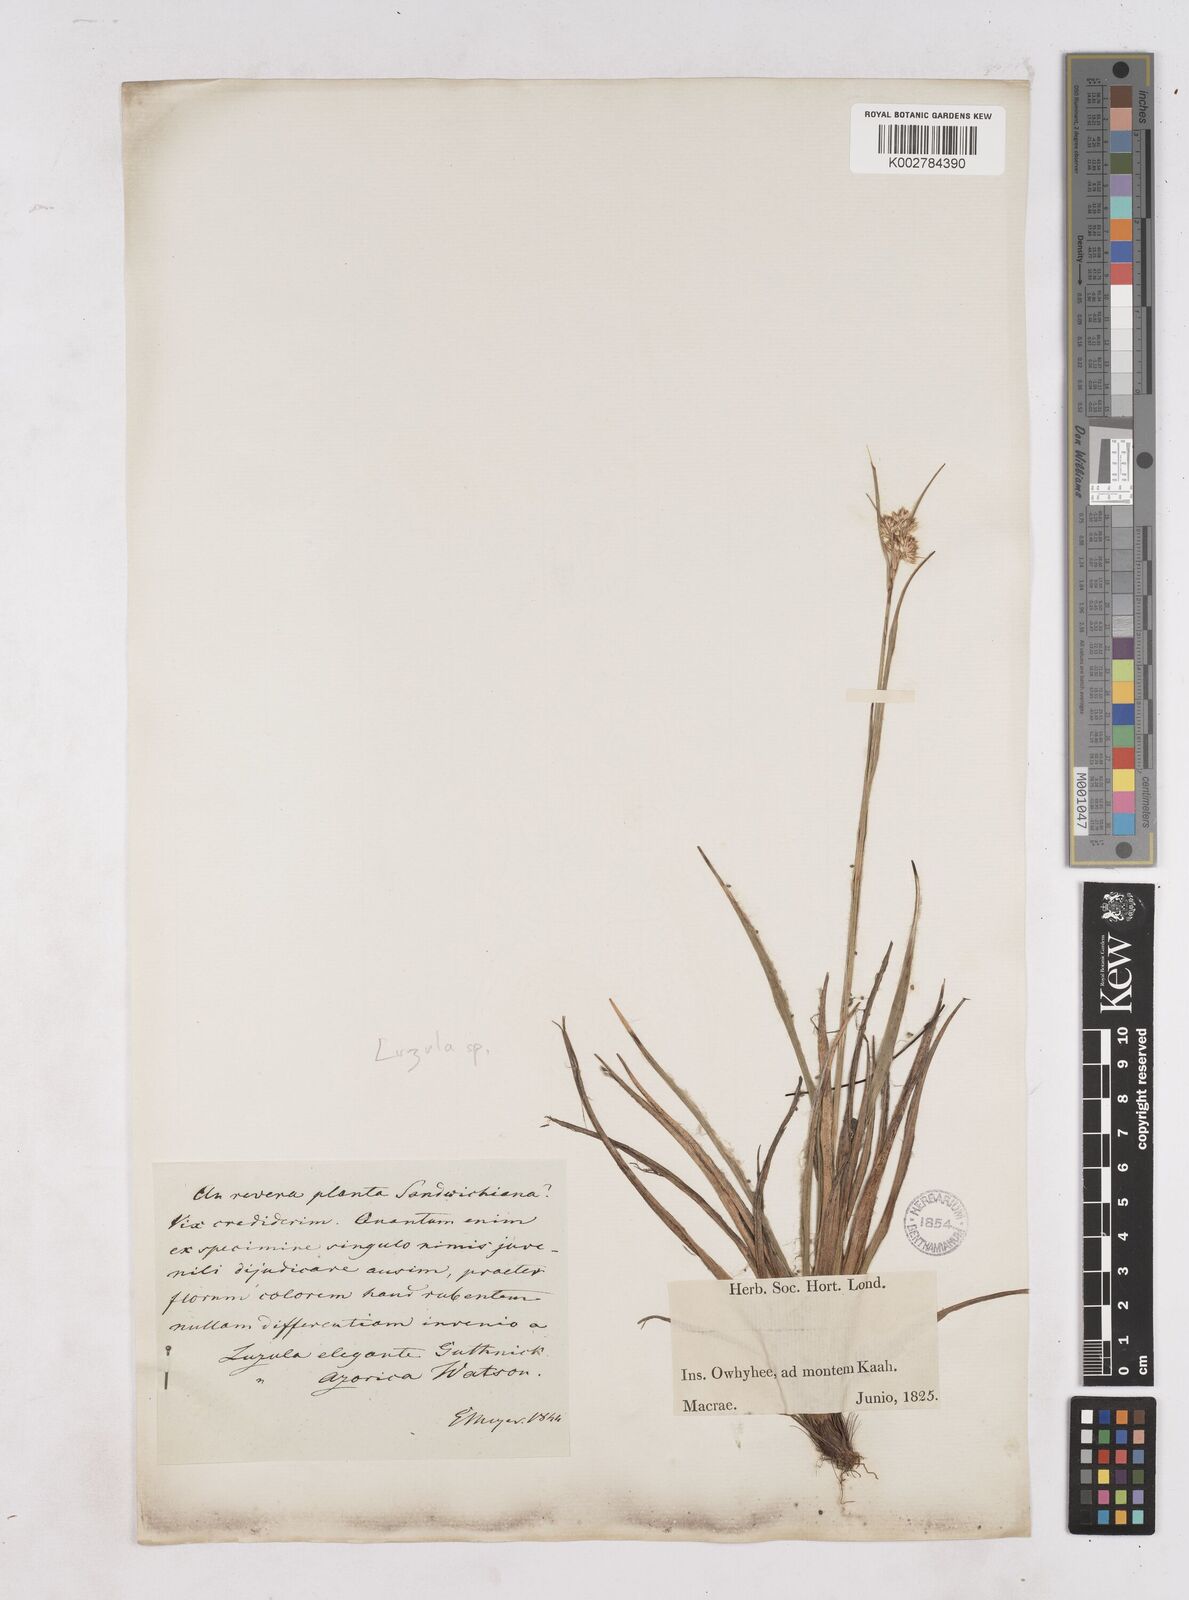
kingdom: Plantae
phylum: Tracheophyta
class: Liliopsida
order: Poales
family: Juncaceae
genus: Luzula
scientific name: Luzula
